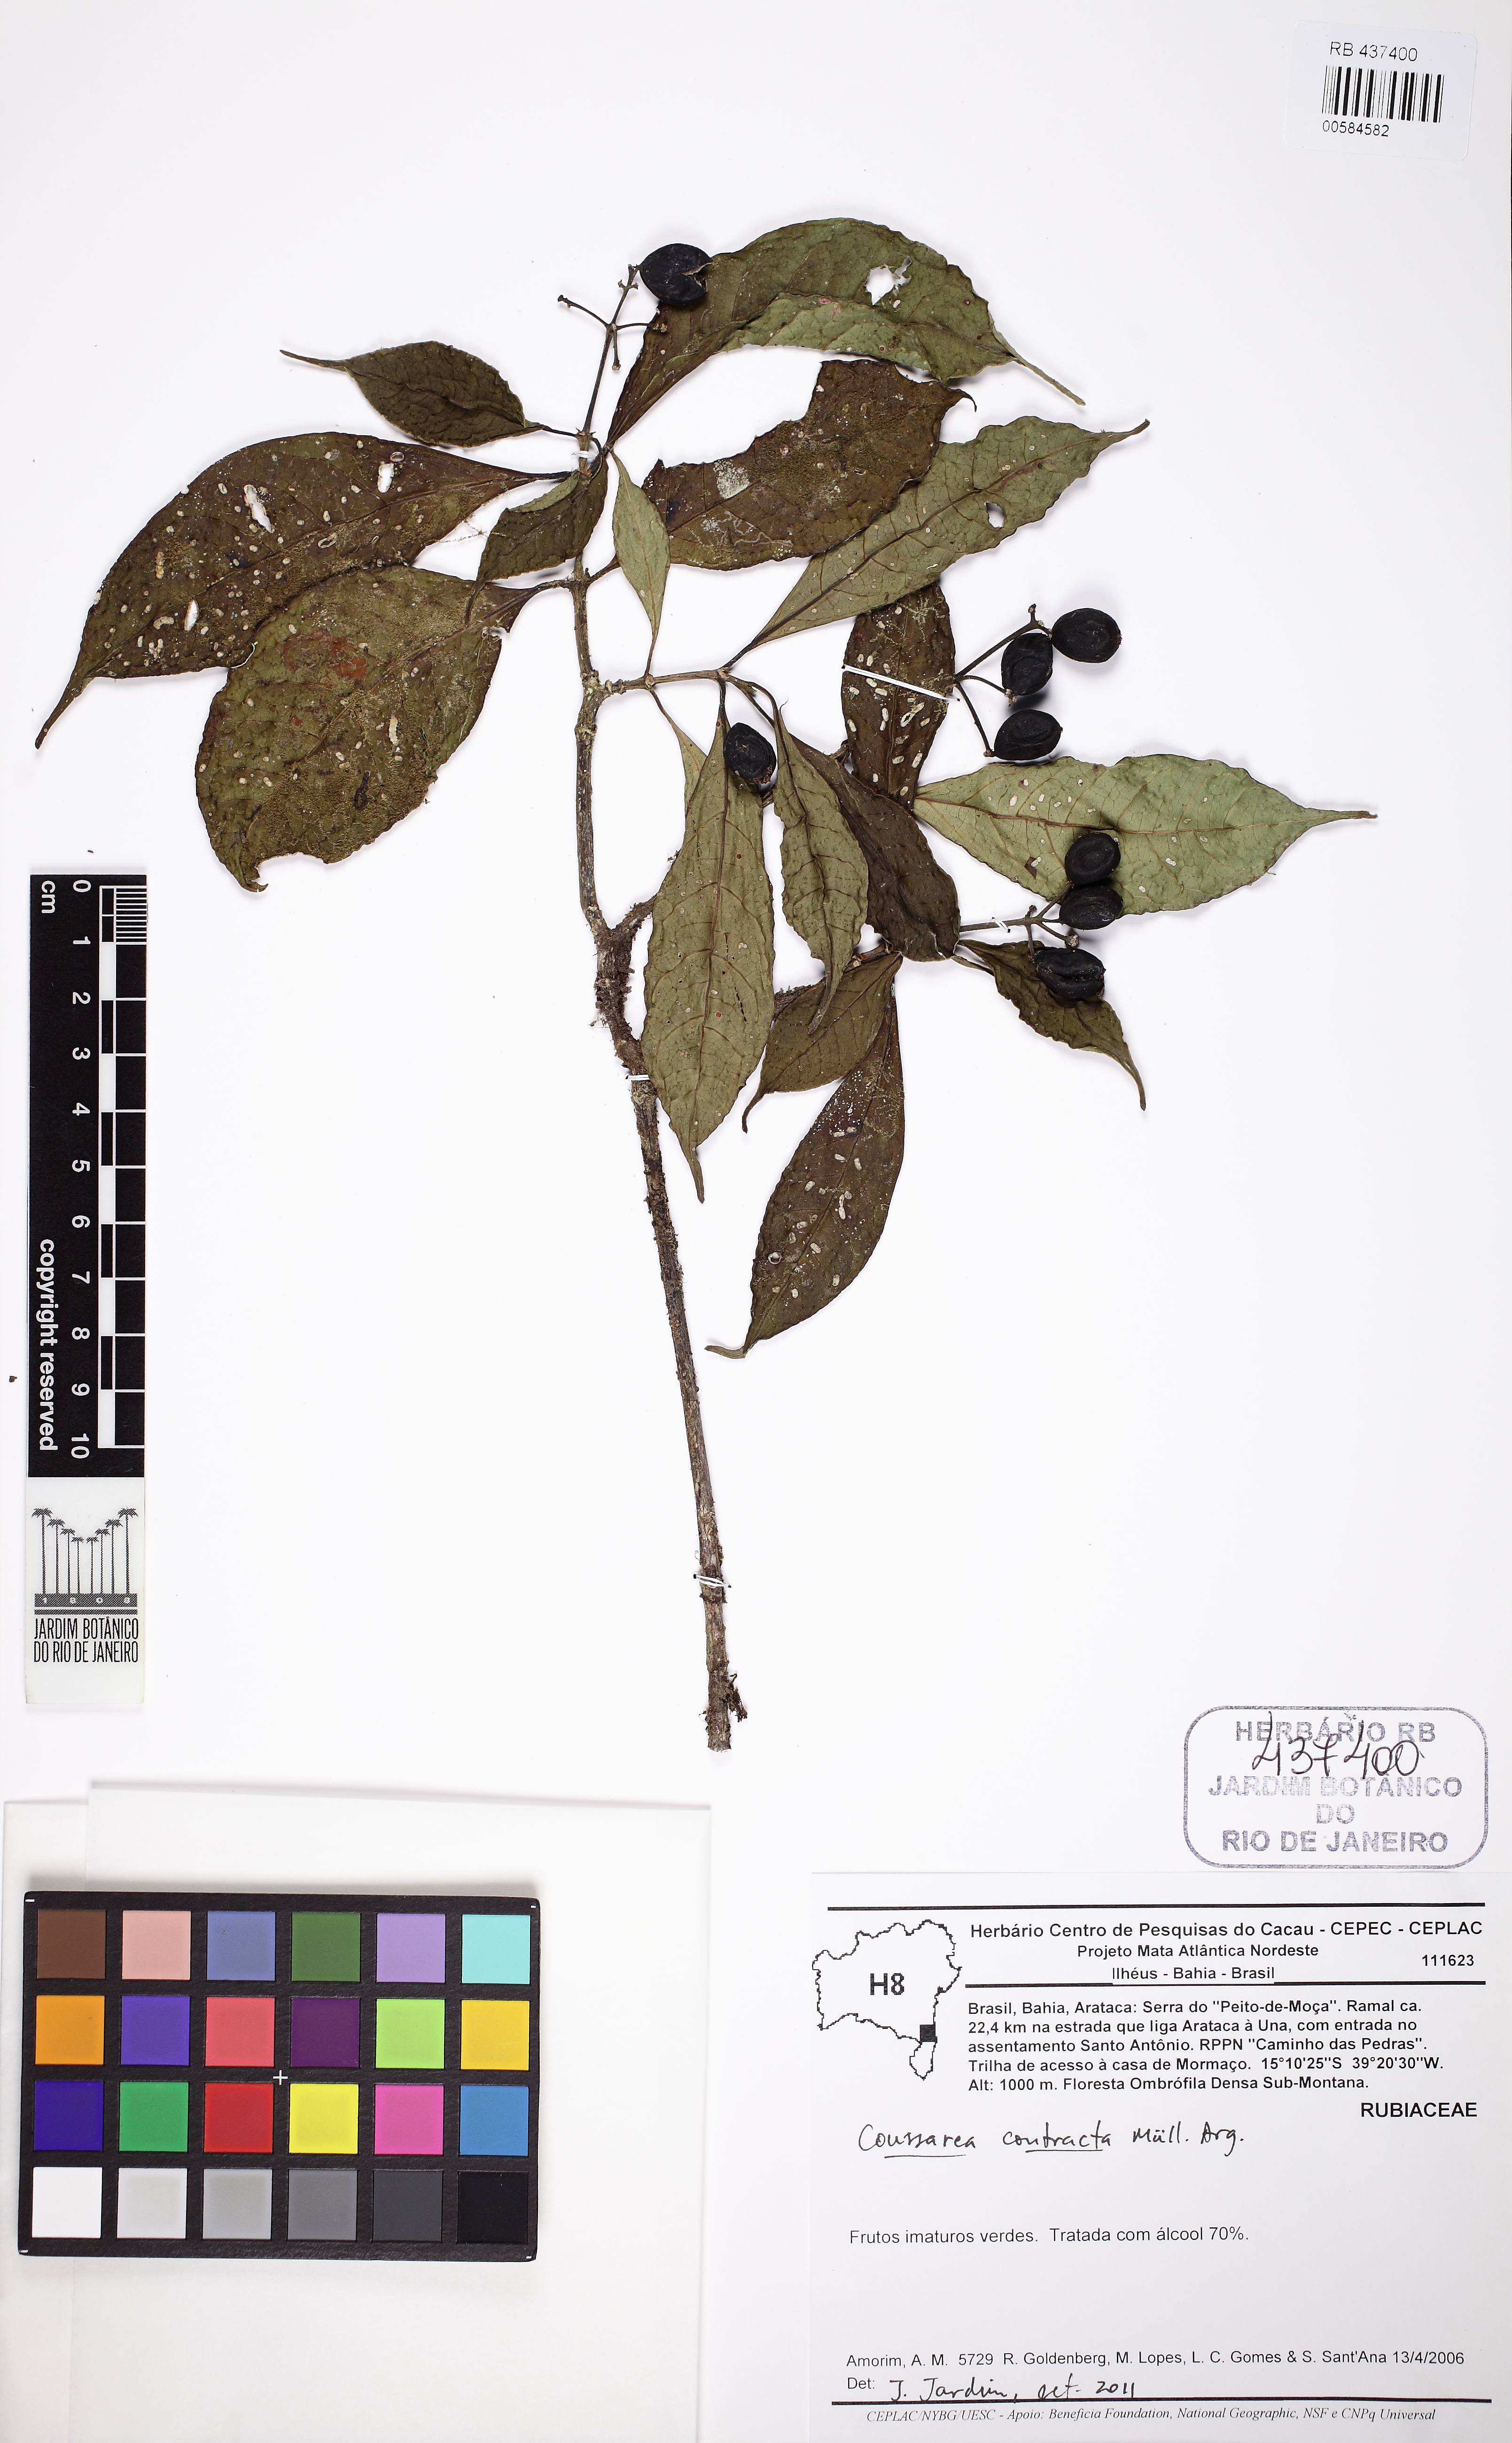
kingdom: Plantae
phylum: Tracheophyta
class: Magnoliopsida
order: Gentianales
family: Rubiaceae
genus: Coussarea
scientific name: Coussarea contracta
